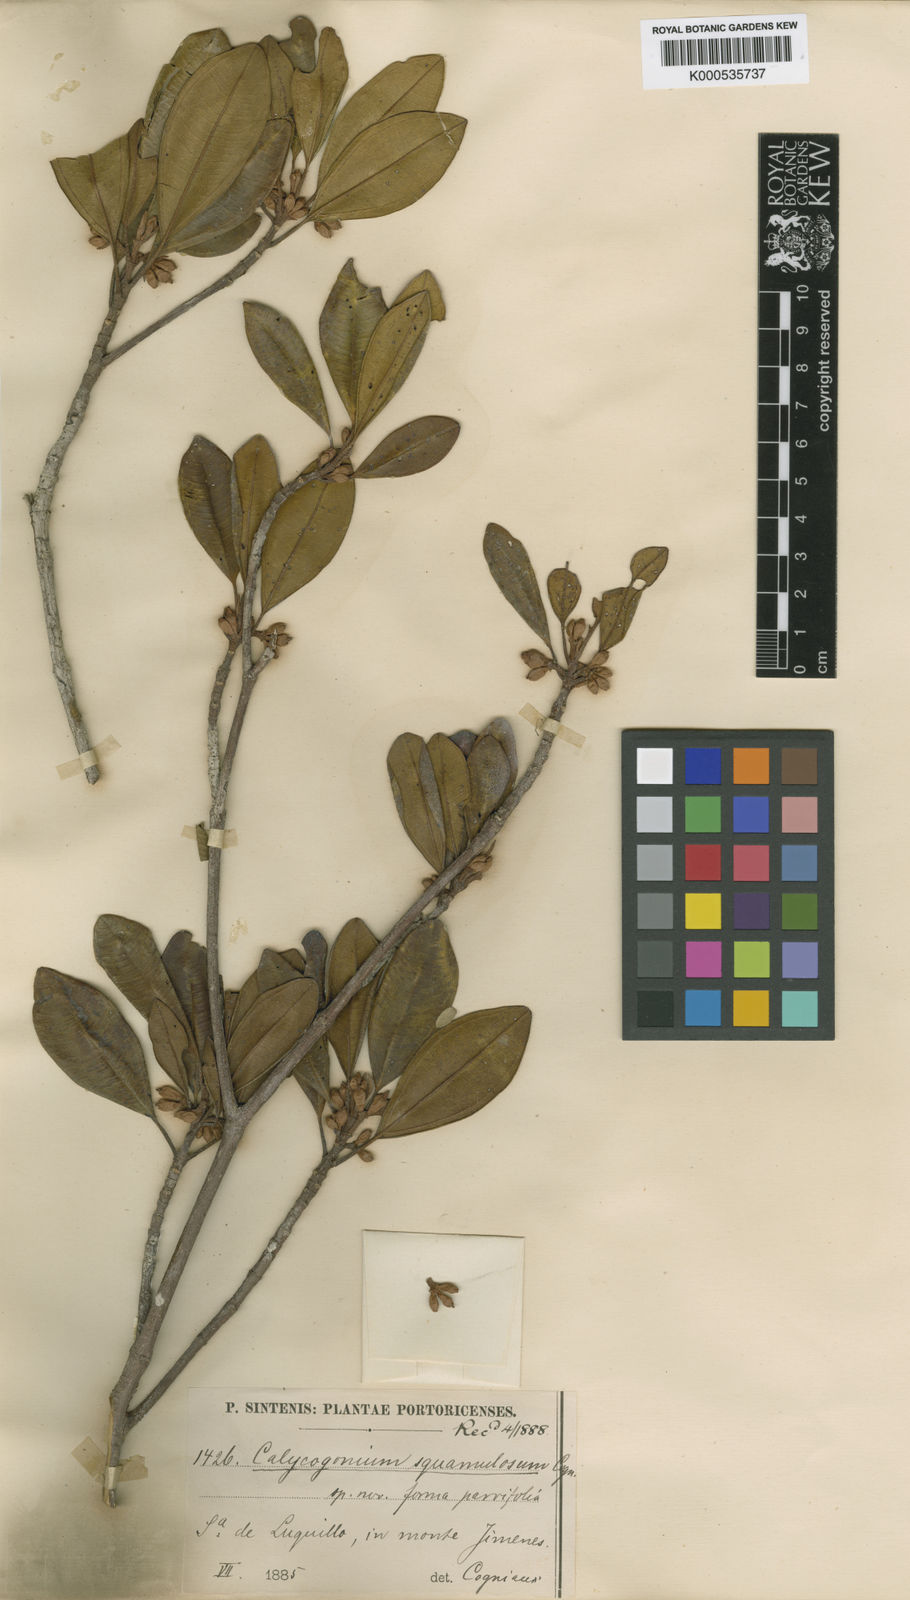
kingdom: Plantae
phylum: Tracheophyta
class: Magnoliopsida
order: Myrtales
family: Melastomataceae
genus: Henriettea
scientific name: Henriettea squamulosa
